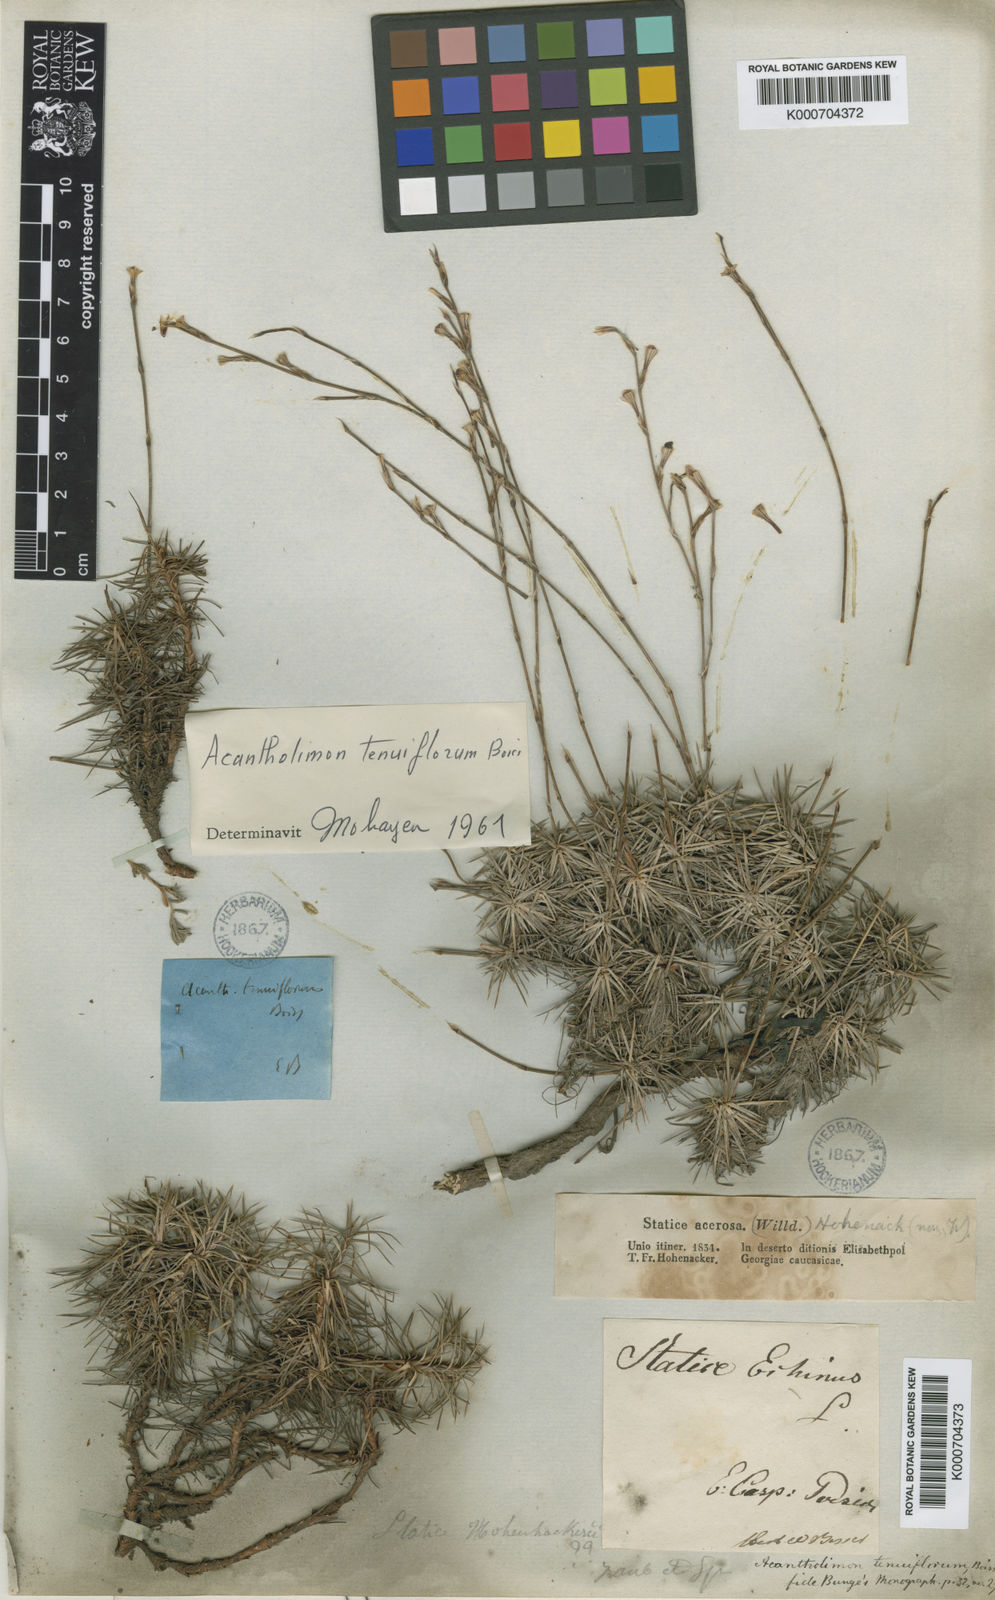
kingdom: Plantae
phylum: Tracheophyta
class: Magnoliopsida
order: Caryophyllales
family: Plumbaginaceae
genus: Acantholimon
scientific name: Acantholimon tenuiflorum
